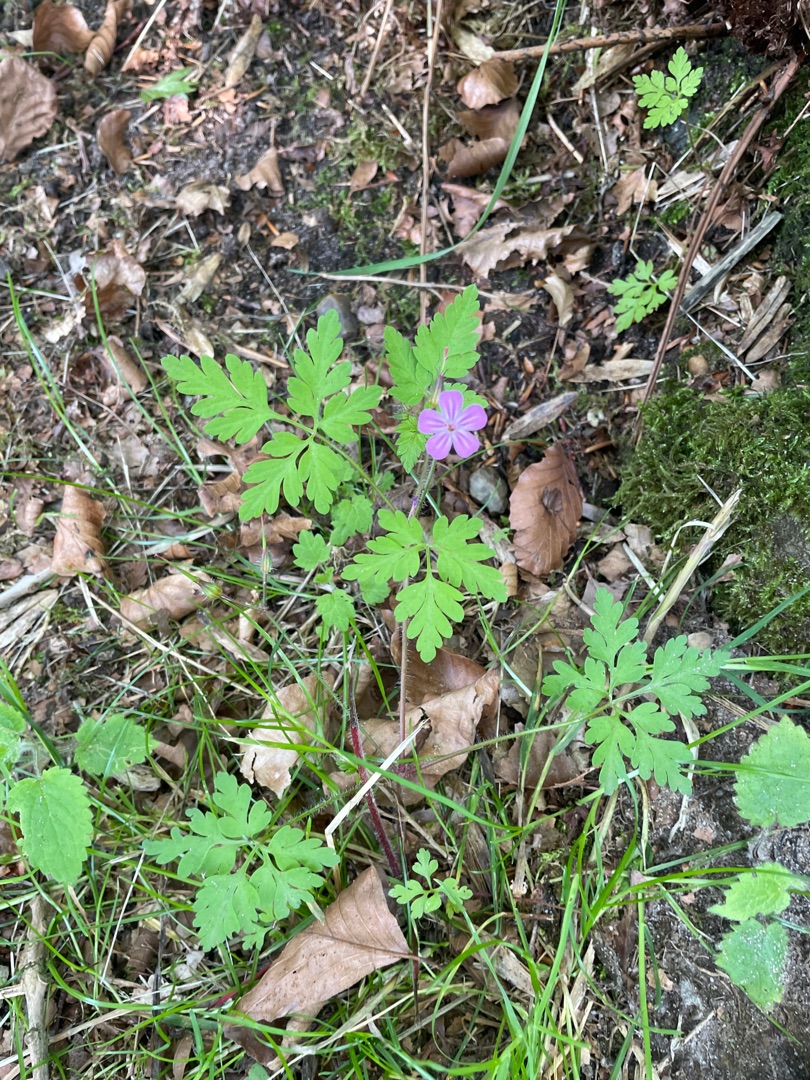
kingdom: Plantae
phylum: Tracheophyta
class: Magnoliopsida
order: Geraniales
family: Geraniaceae
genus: Geranium
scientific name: Geranium robertianum
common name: Stinkende storkenæb
